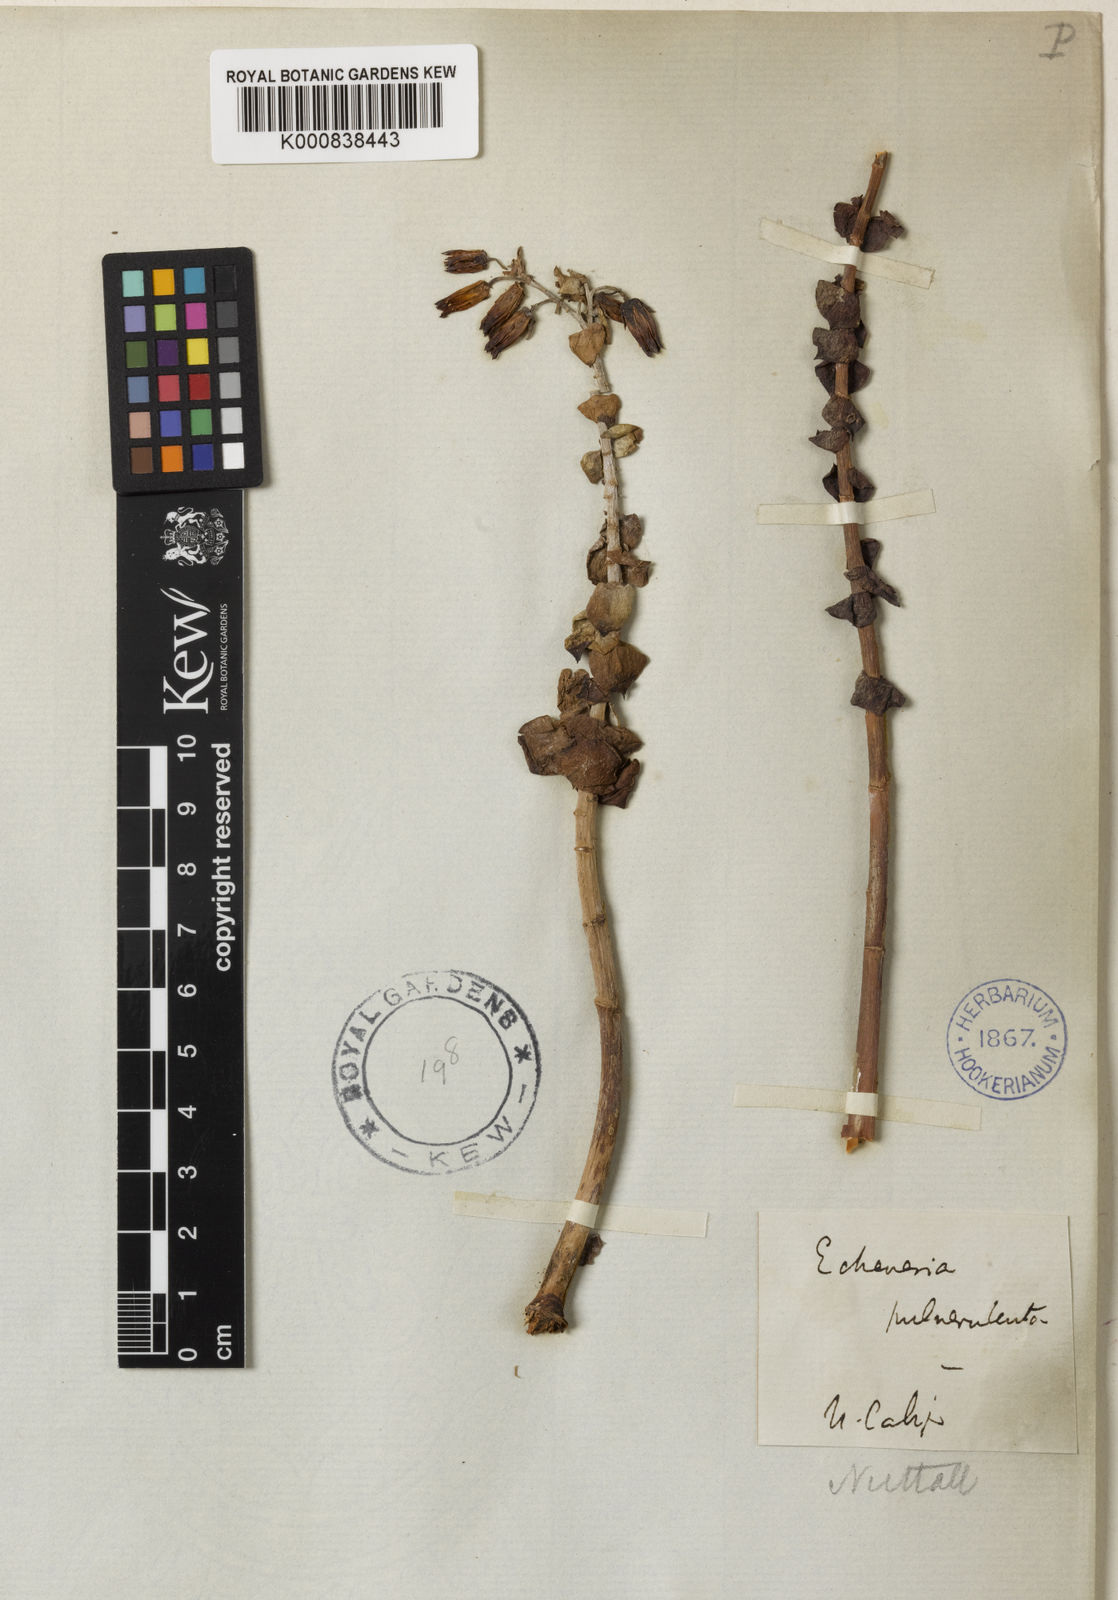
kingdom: Plantae
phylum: Tracheophyta
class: Magnoliopsida
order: Saxifragales
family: Crassulaceae
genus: Dudleya
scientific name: Dudleya pulverulenta
